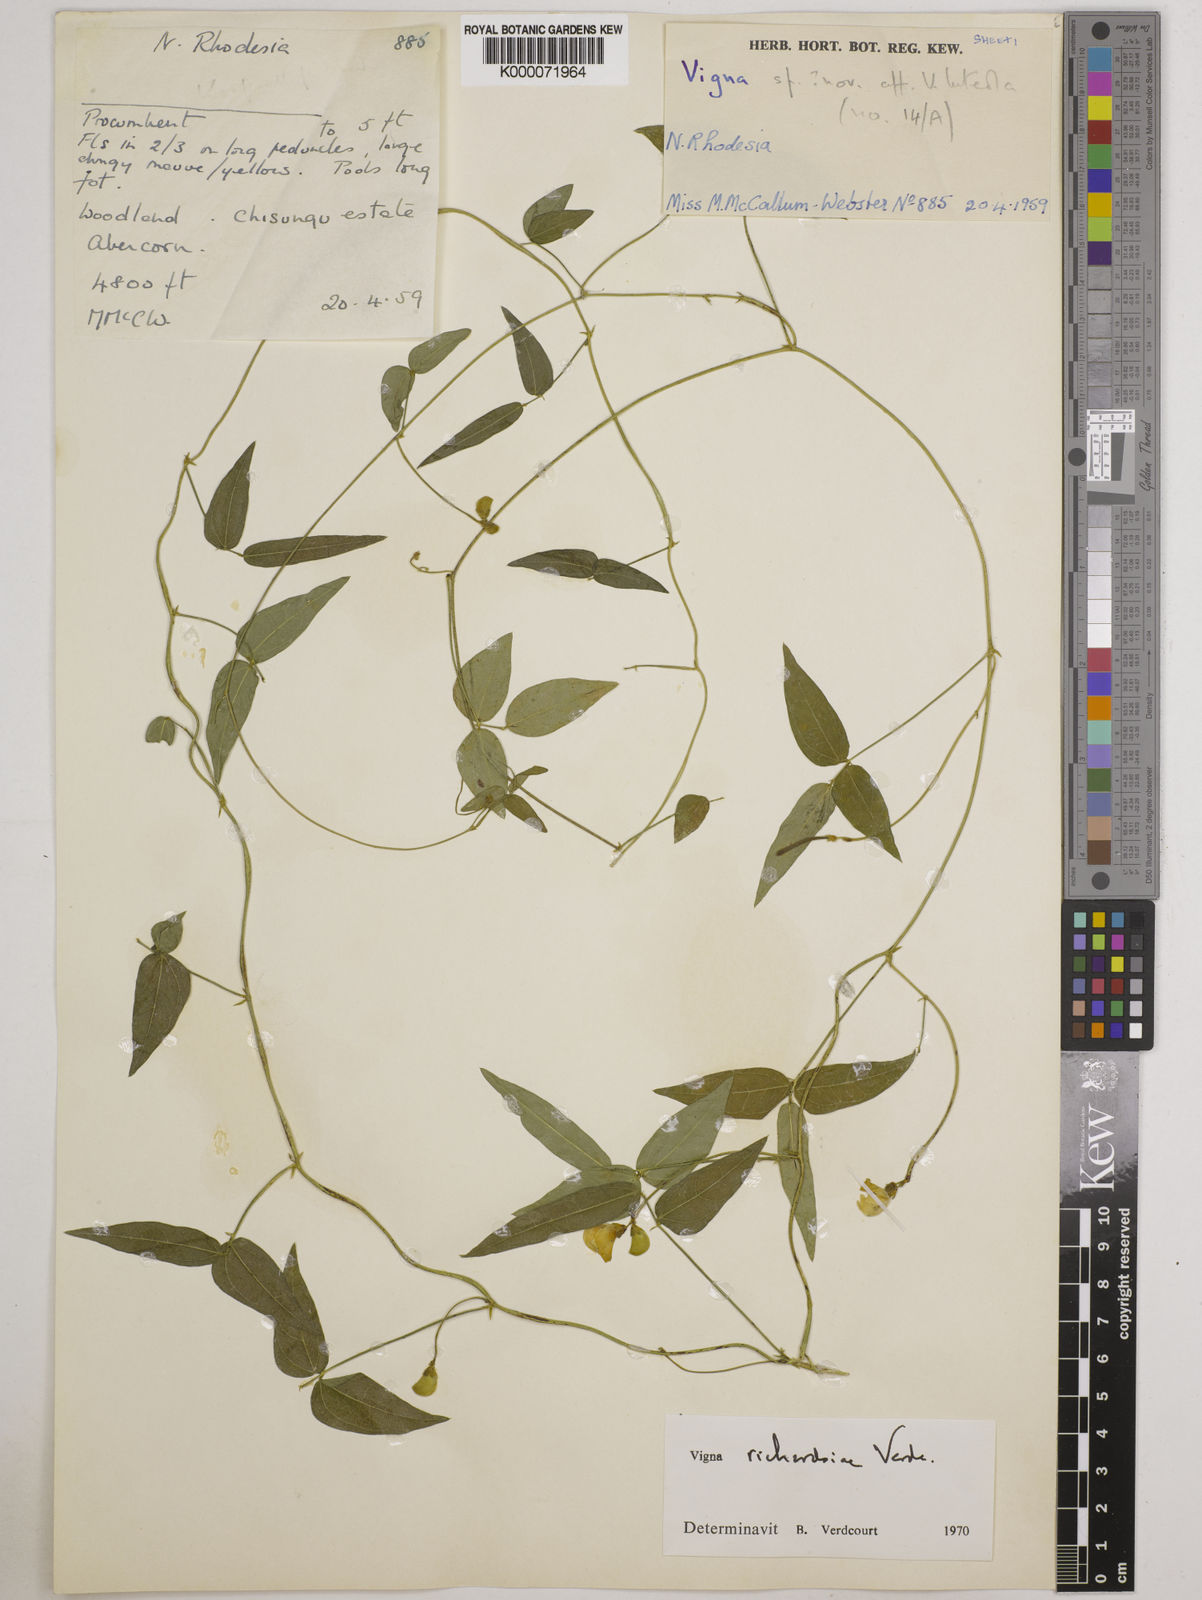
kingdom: Plantae
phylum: Tracheophyta
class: Magnoliopsida
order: Fabales
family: Fabaceae
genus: Vigna
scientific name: Vigna richardsiae
